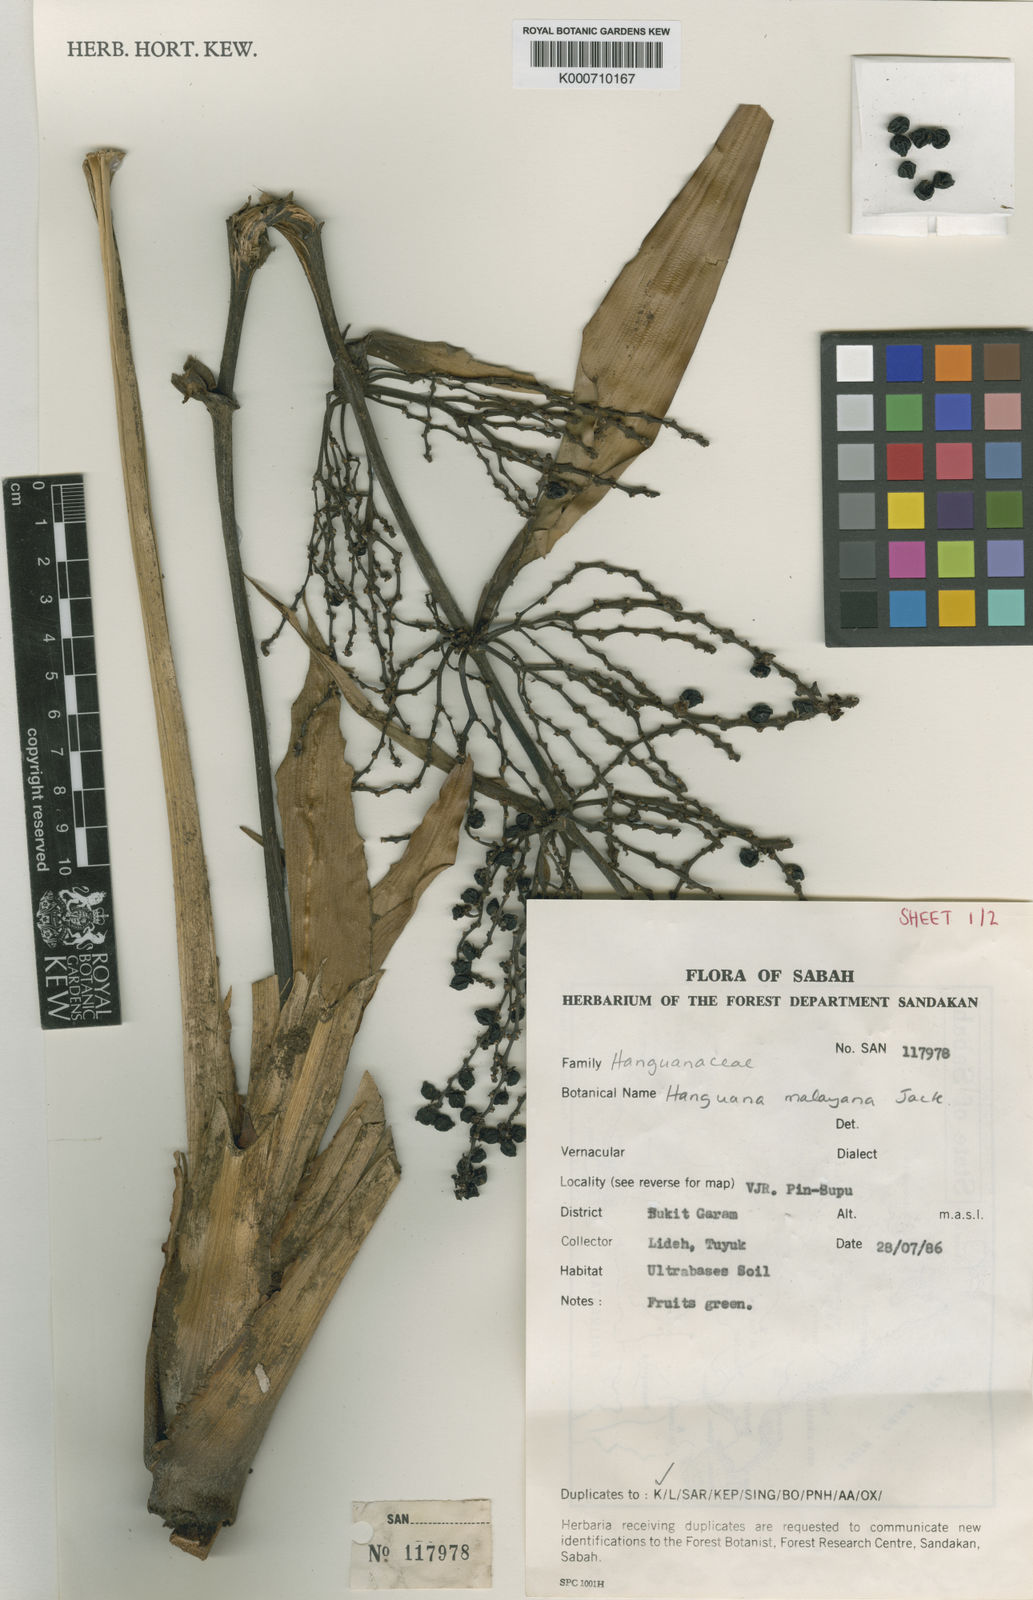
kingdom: Plantae
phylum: Tracheophyta
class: Liliopsida
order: Commelinales
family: Hanguanaceae
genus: Hanguana
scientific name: Hanguana malayana
